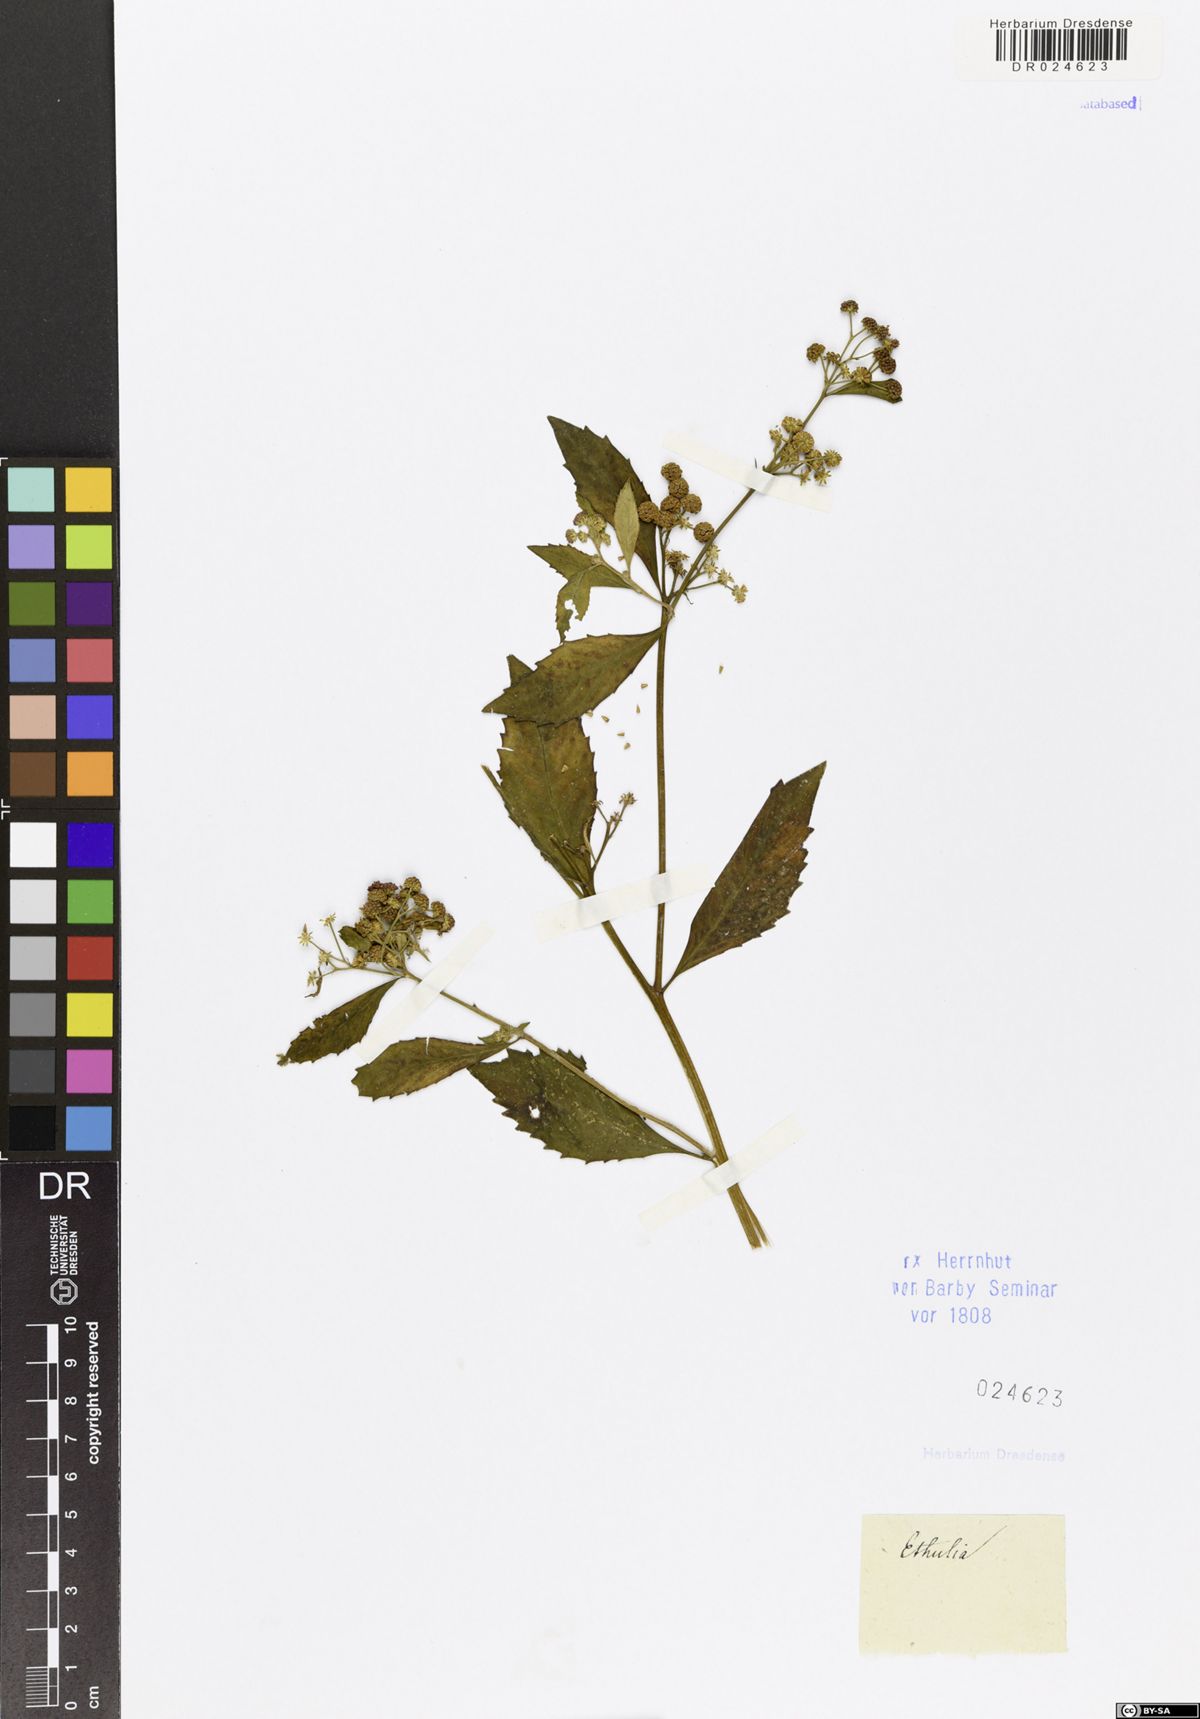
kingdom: Plantae
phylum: Tracheophyta
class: Magnoliopsida
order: Asterales
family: Asteraceae
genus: Ethulia
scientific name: Ethulia conyzoides
